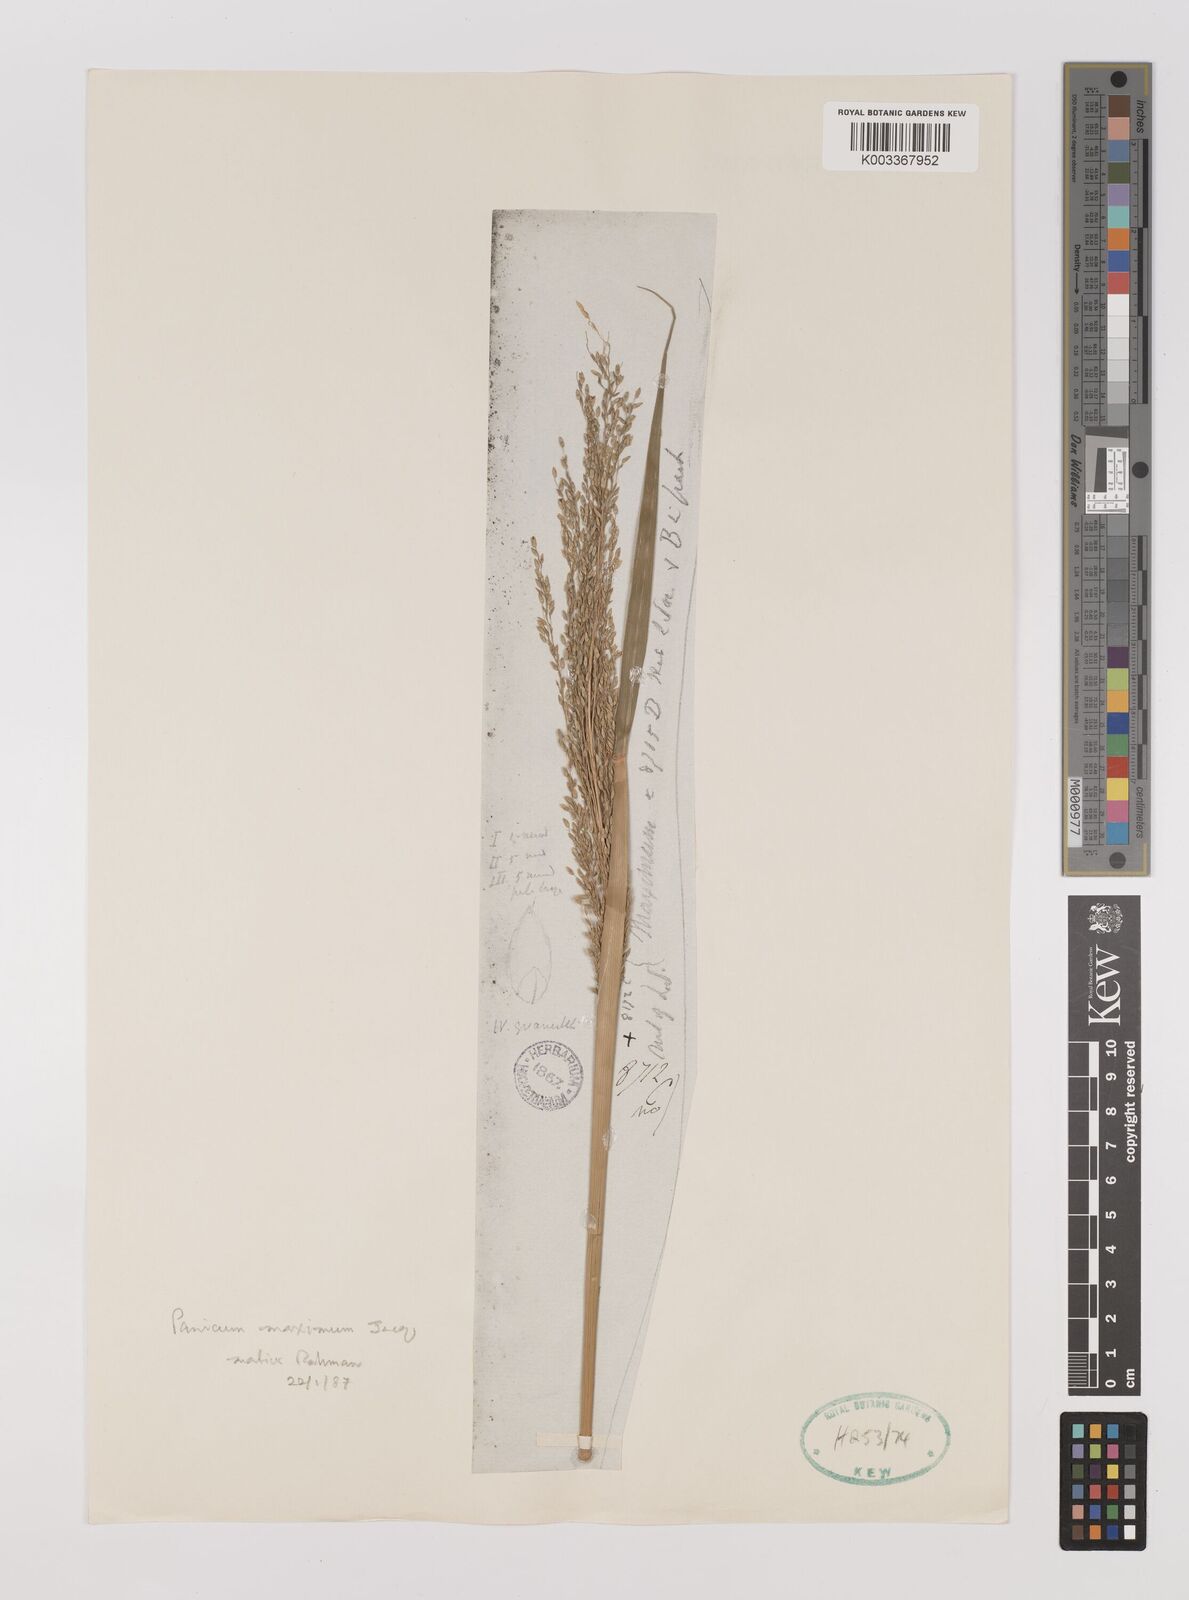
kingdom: Plantae
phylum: Tracheophyta
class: Liliopsida
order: Poales
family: Poaceae
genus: Megathyrsus
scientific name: Megathyrsus maximus
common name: Guineagrass
